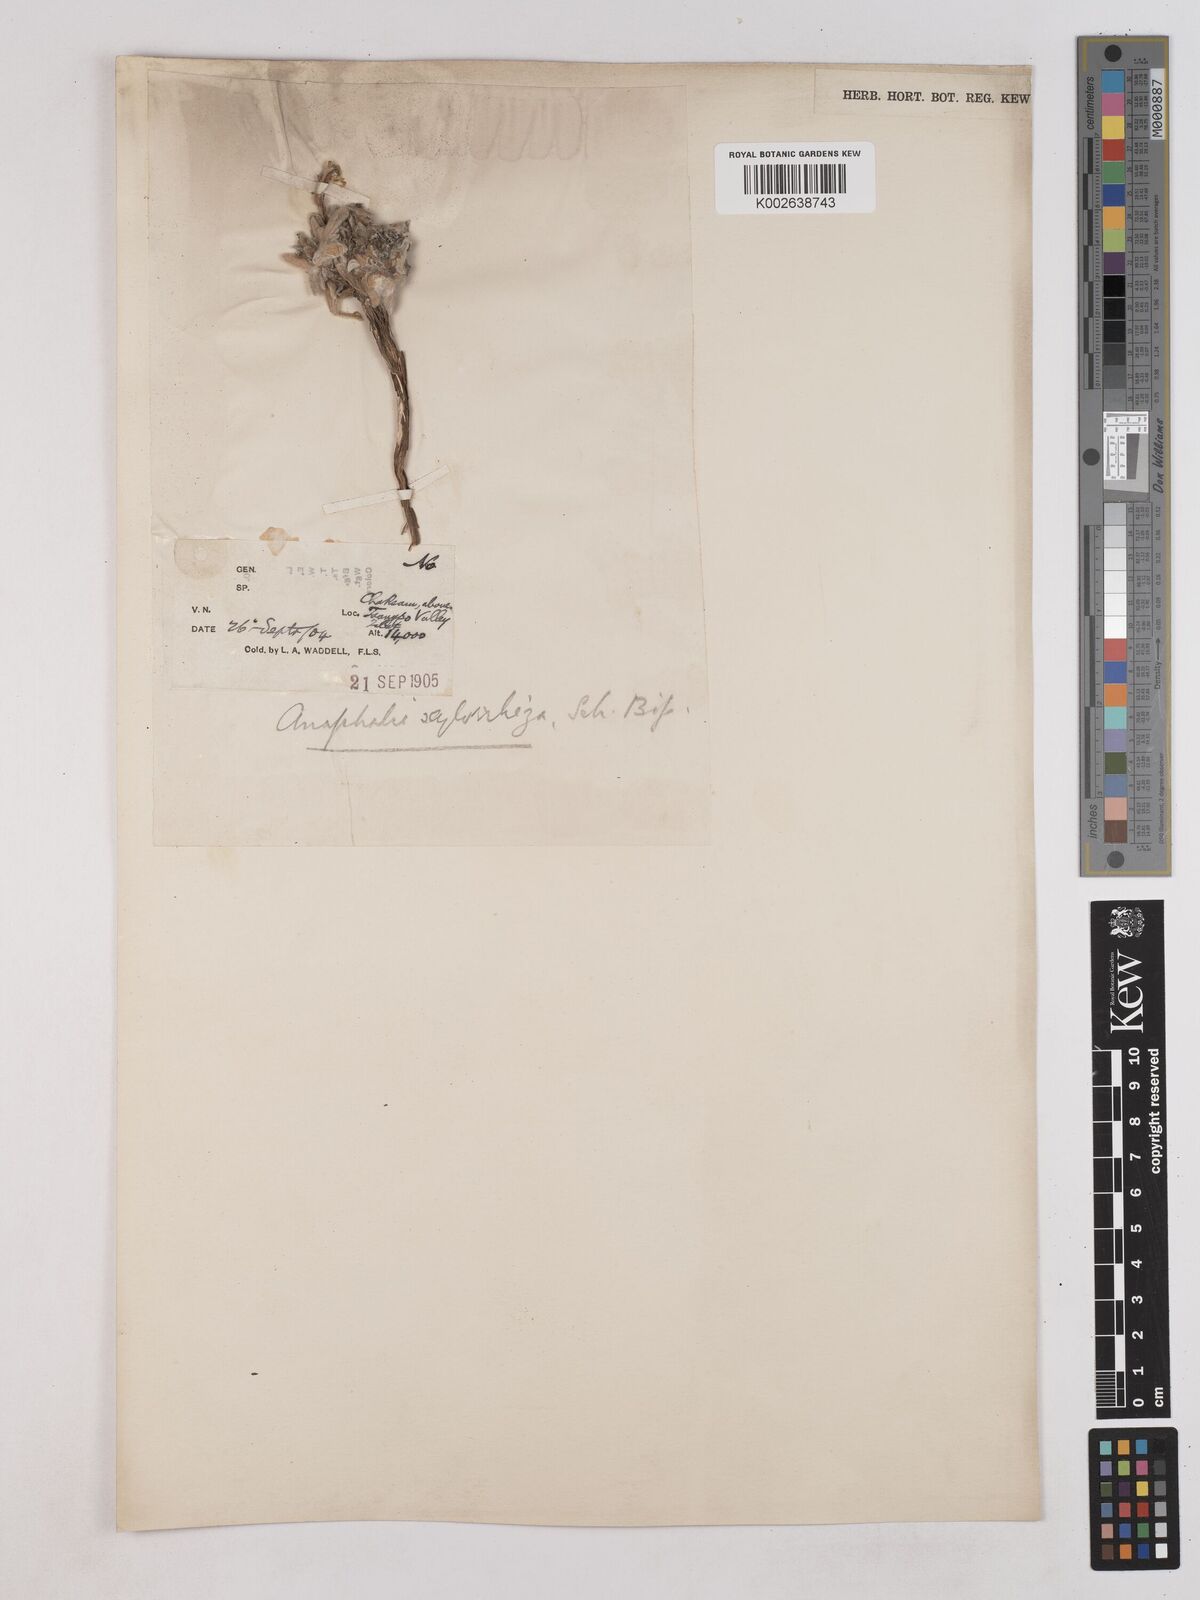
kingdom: Plantae
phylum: Tracheophyta
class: Magnoliopsida
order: Asterales
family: Asteraceae
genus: Anaphalis
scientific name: Anaphalis xylorhiza
